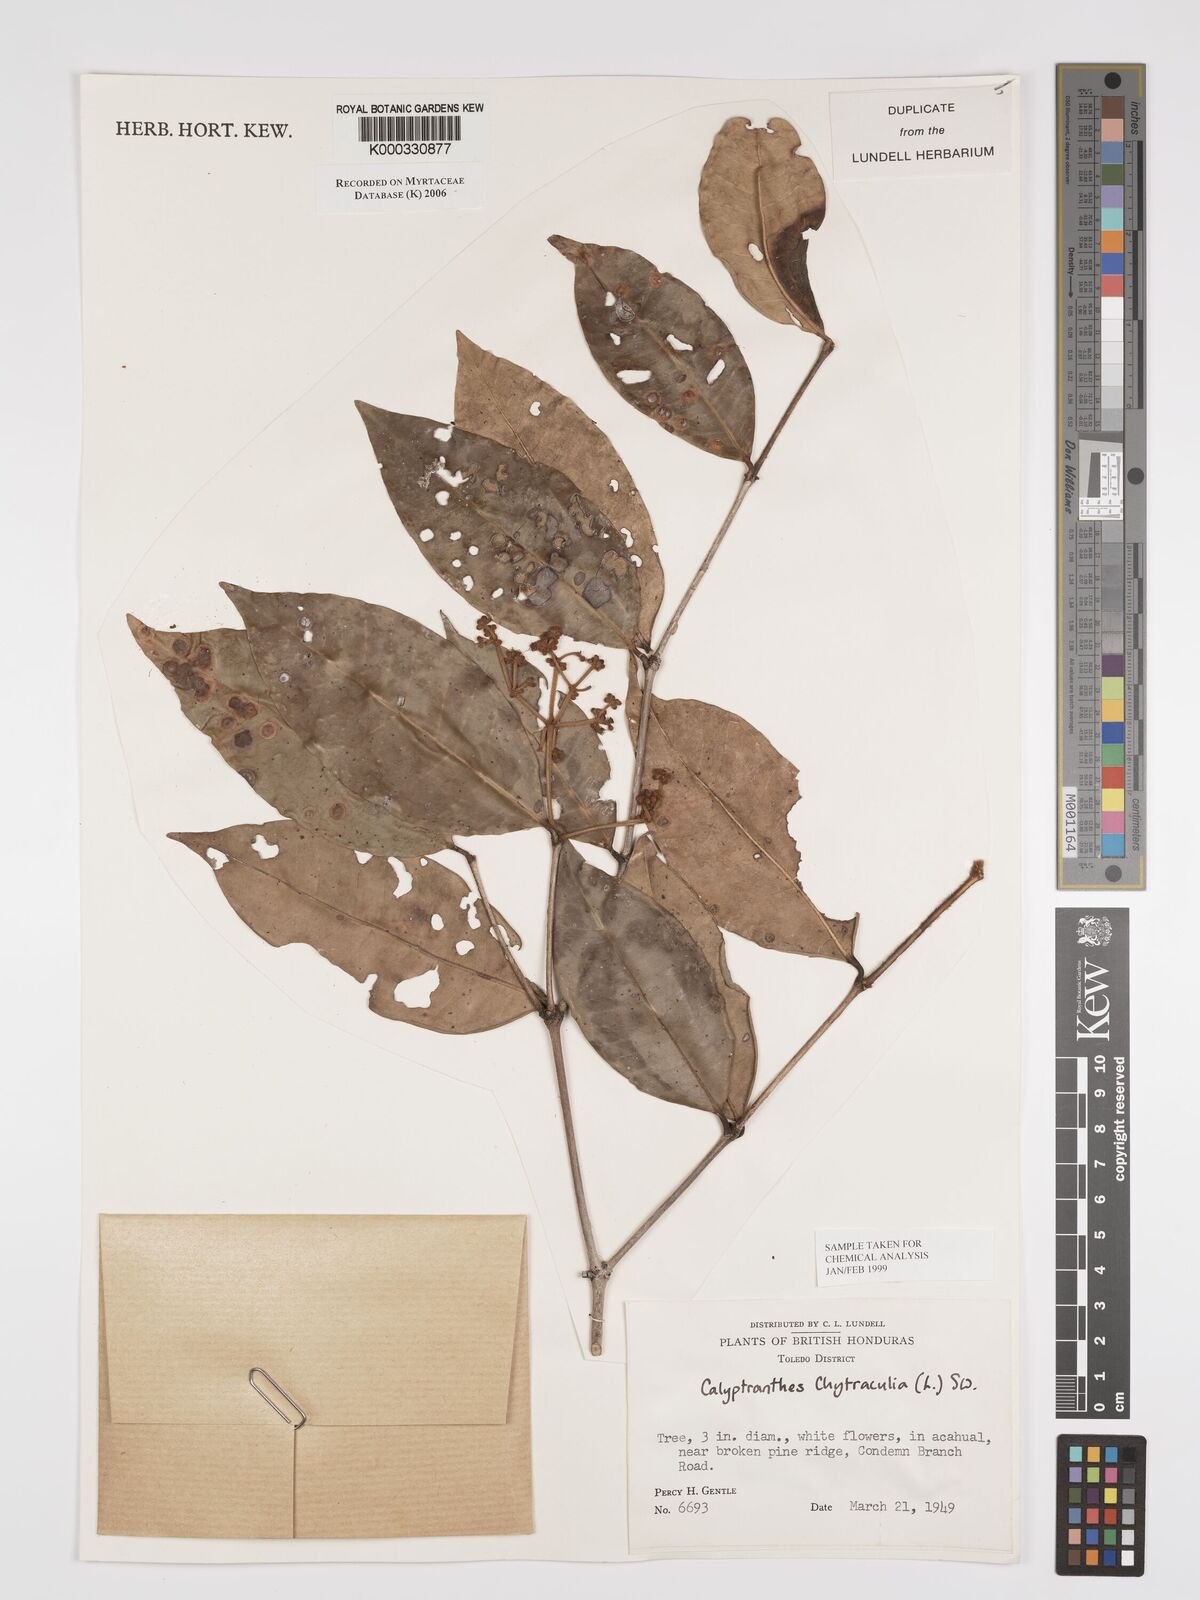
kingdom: Plantae
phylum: Tracheophyta
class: Magnoliopsida
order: Myrtales
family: Myrtaceae
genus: Myrcia
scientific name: Myrcia chytraculia
